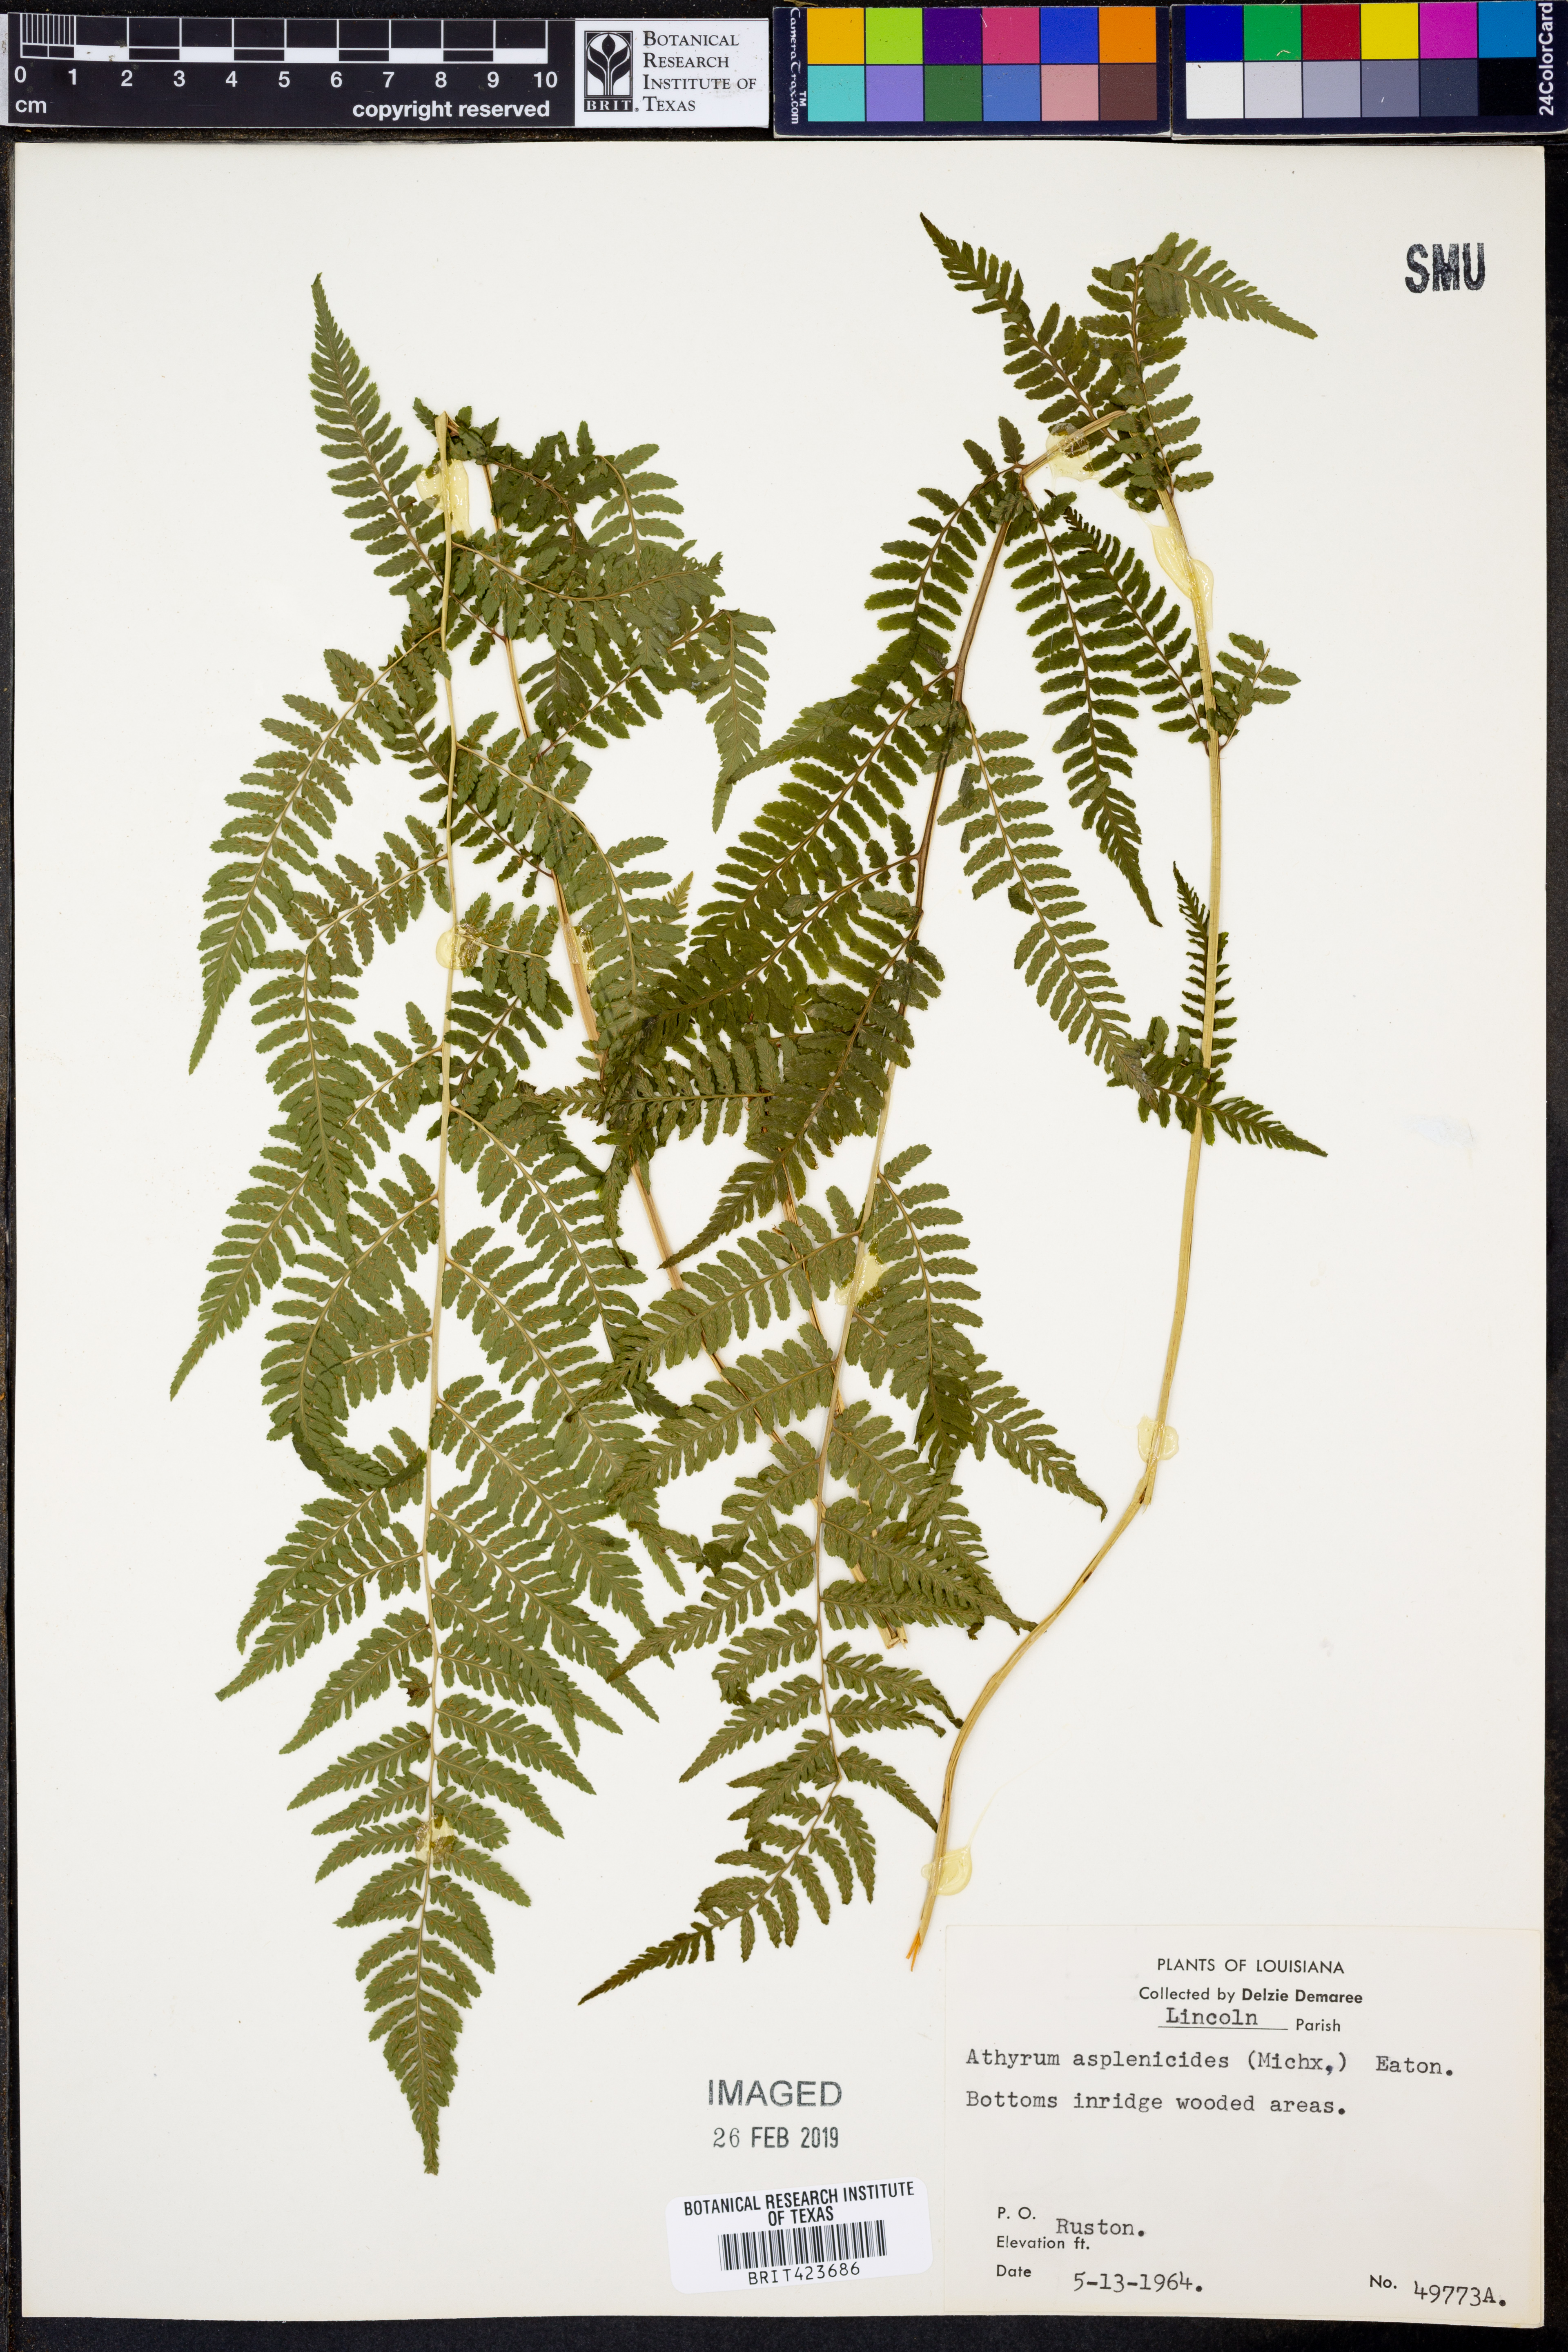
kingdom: Plantae
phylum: Tracheophyta
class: Polypodiopsida
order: Polypodiales
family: Athyriaceae
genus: Athyrium
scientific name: Athyrium asplenioides
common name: Southern lady fern
